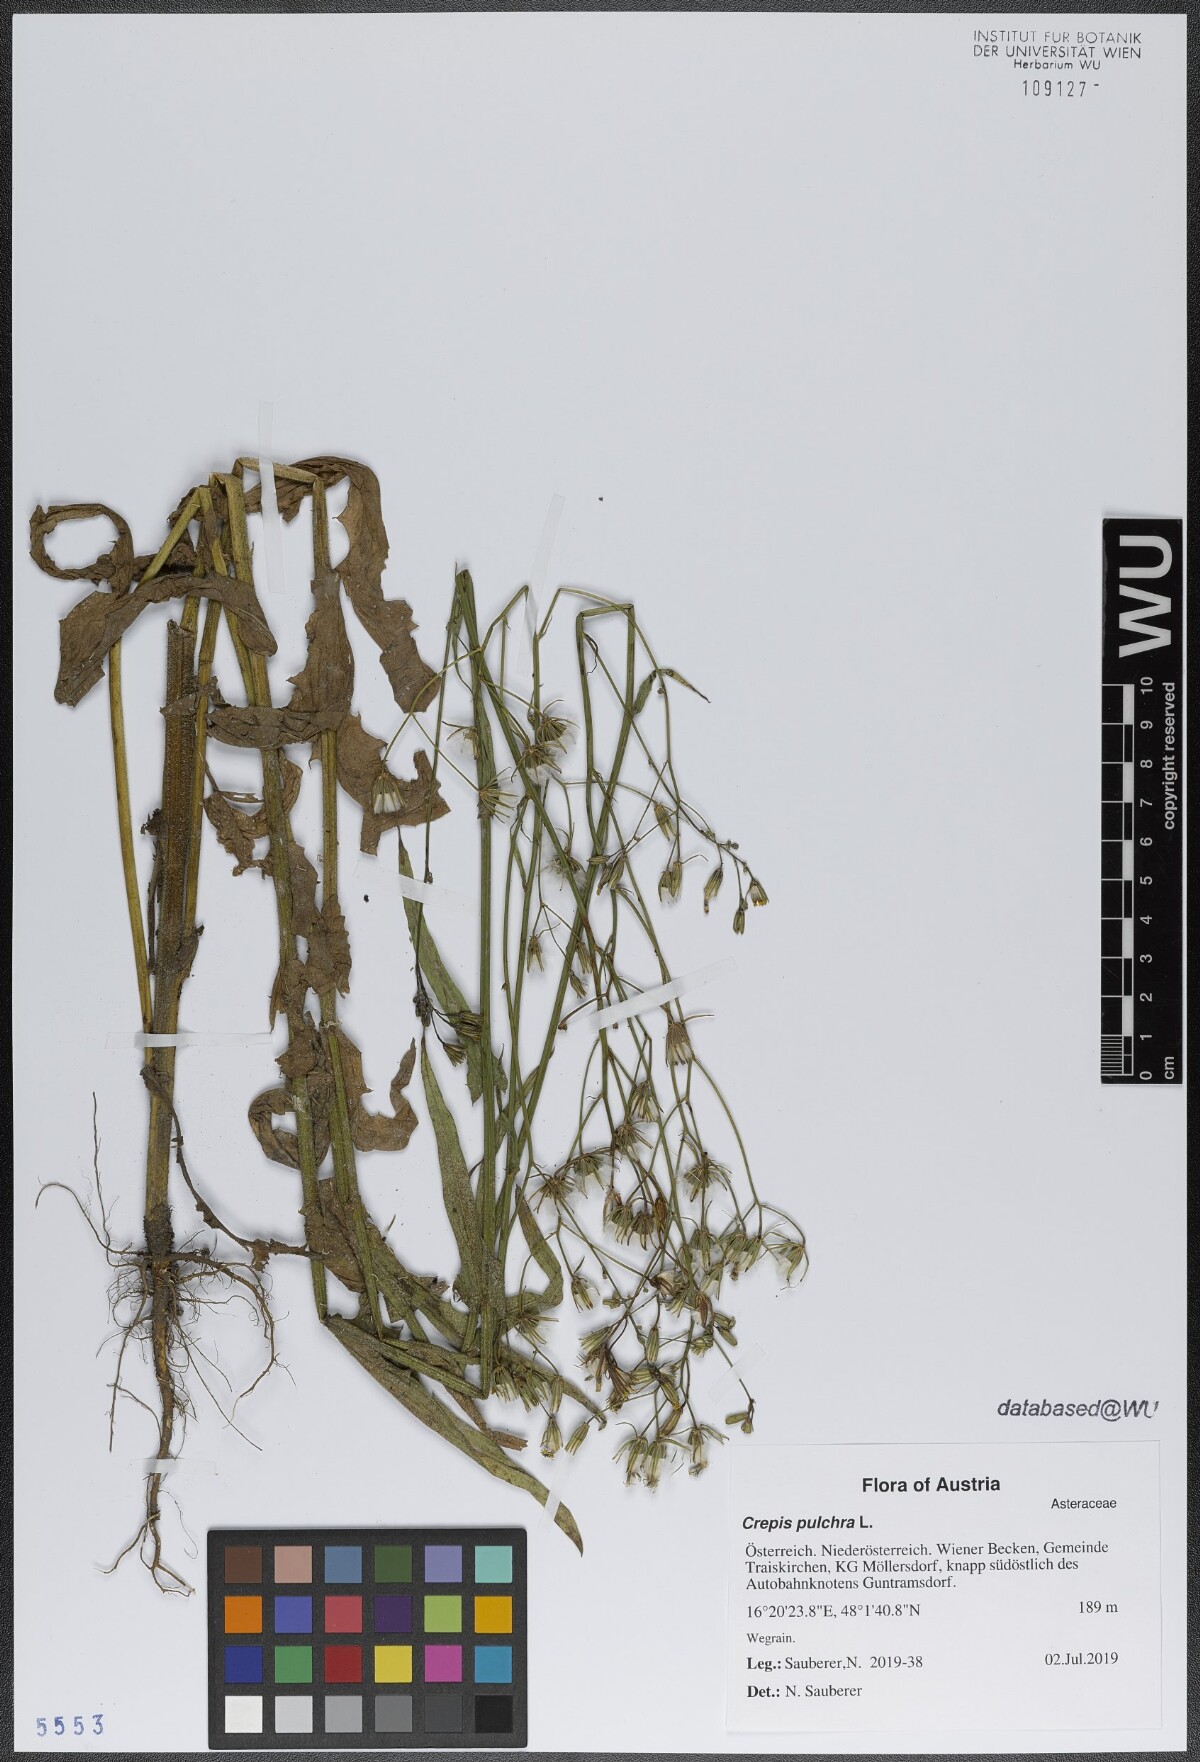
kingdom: Plantae
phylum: Tracheophyta
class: Magnoliopsida
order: Asterales
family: Asteraceae
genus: Crepis
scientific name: Crepis pulchra
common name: Hawk's-beard
